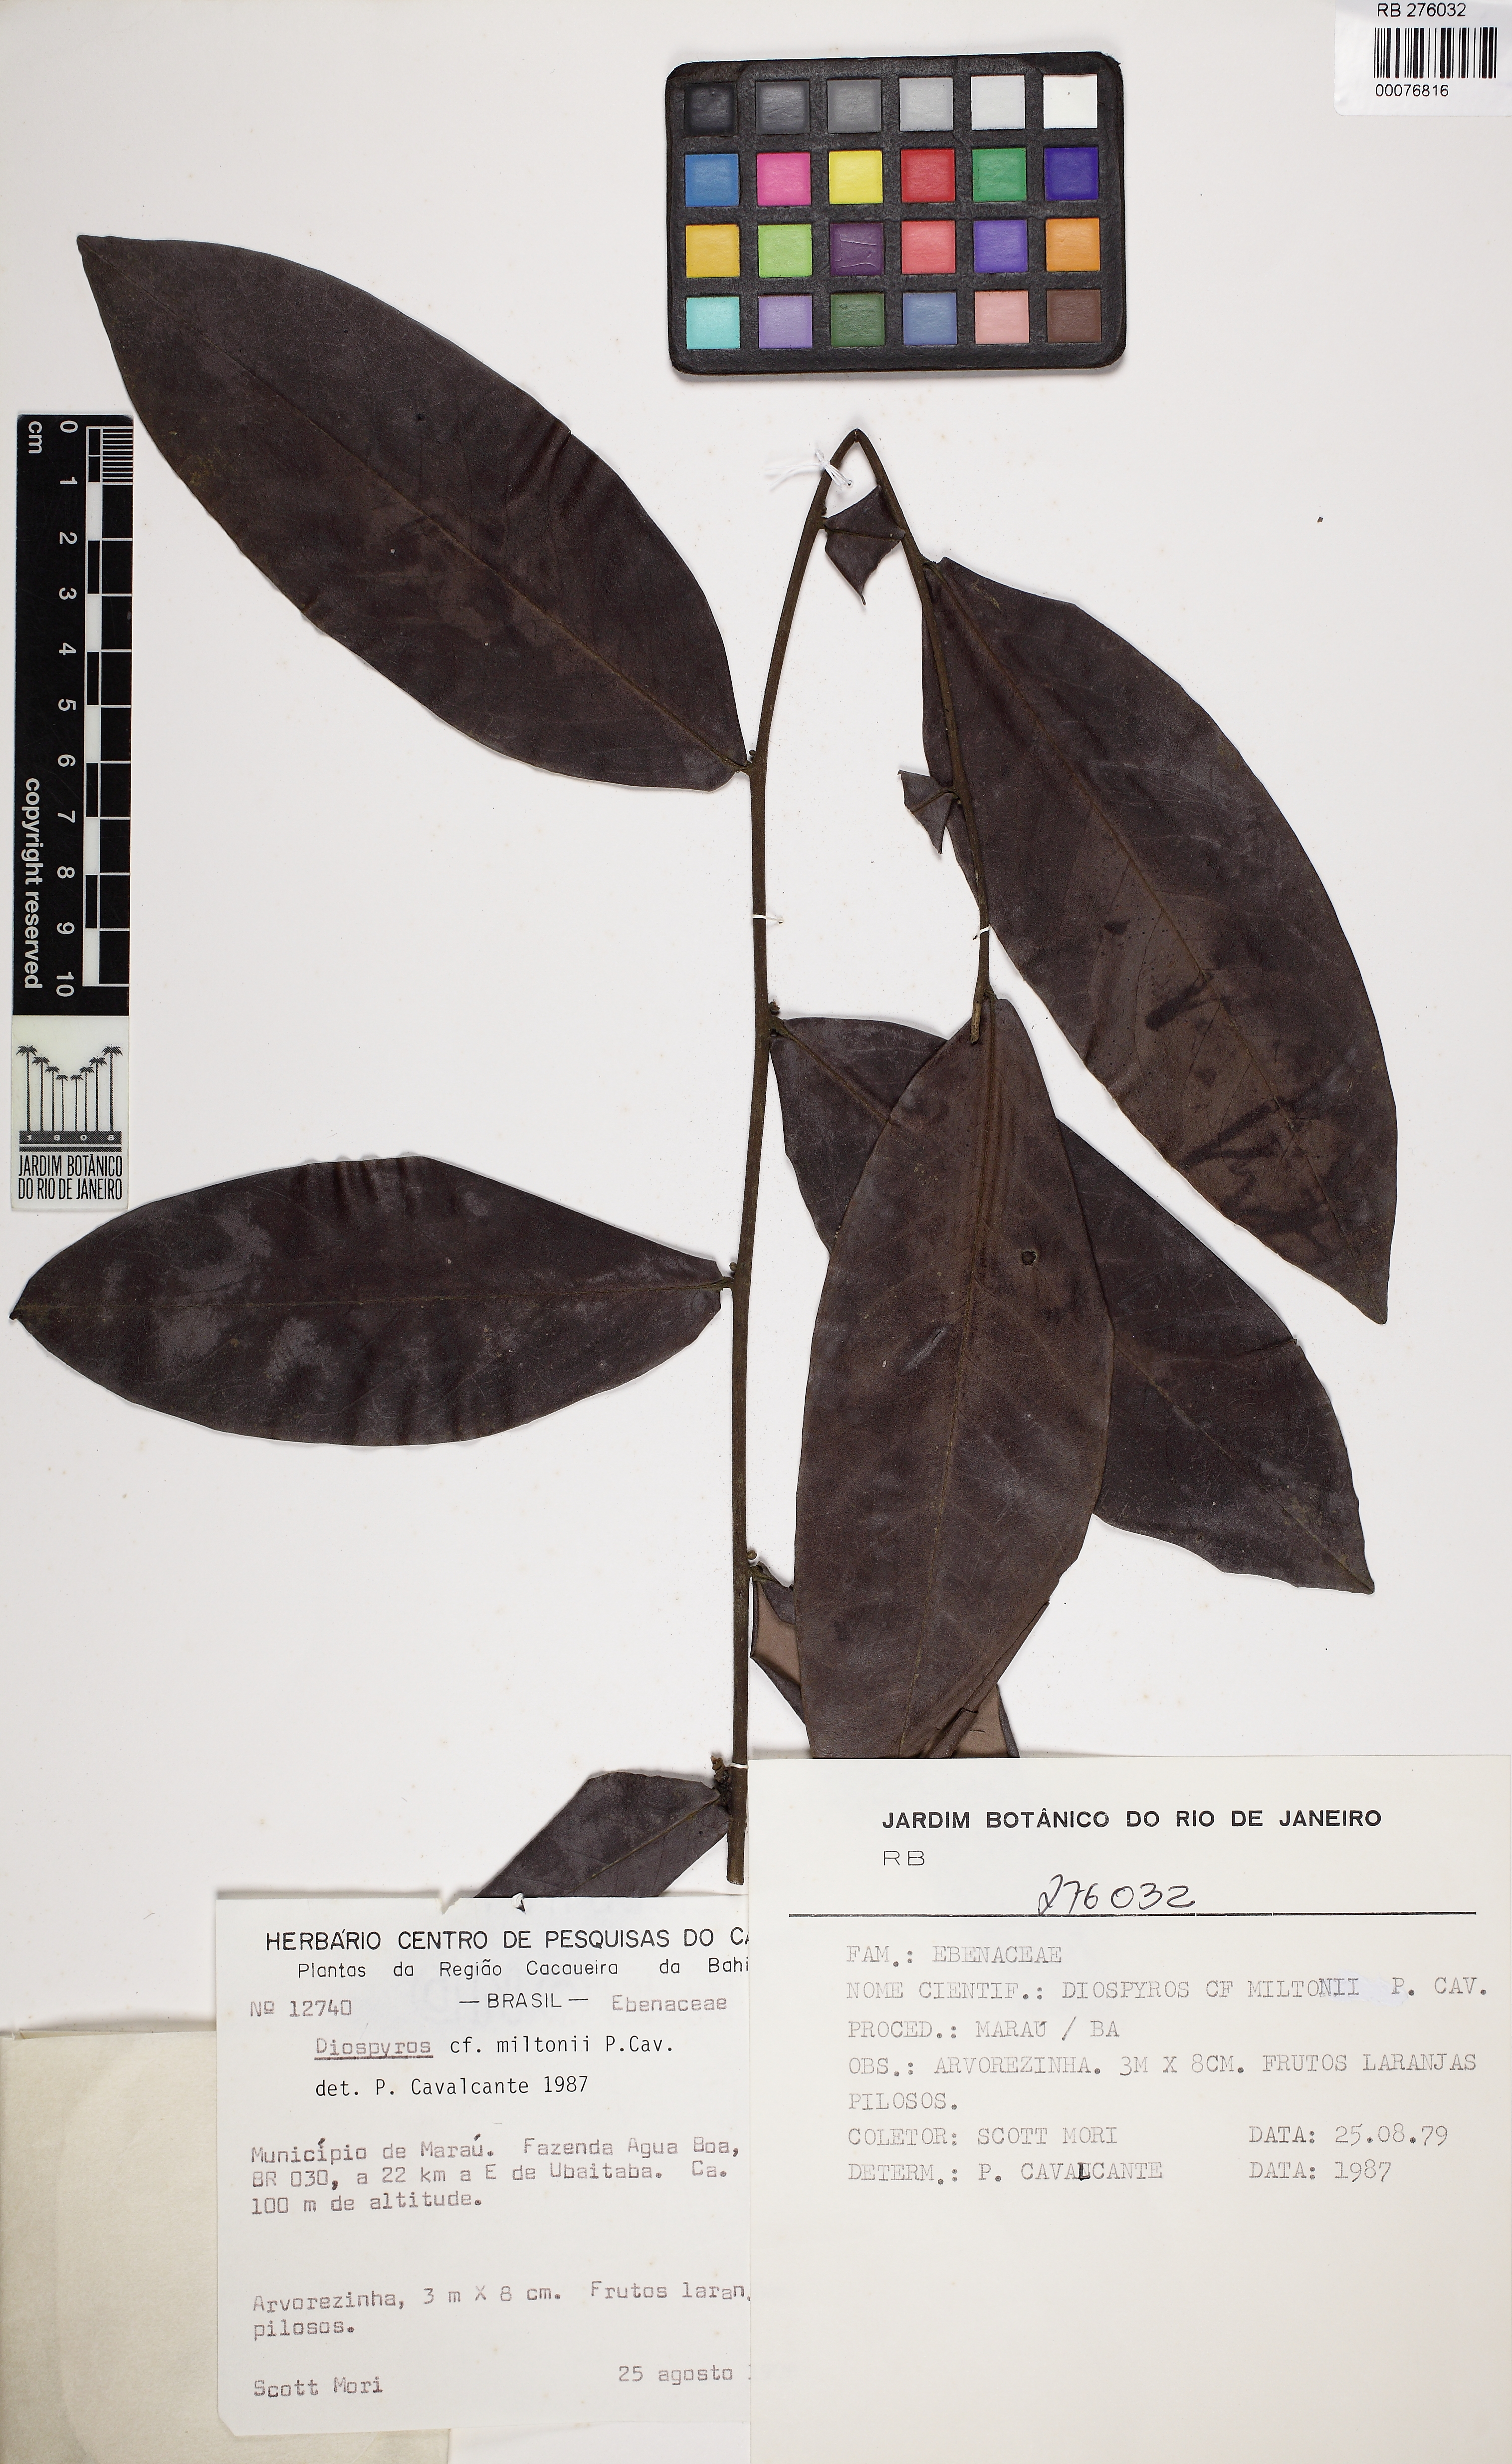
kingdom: Plantae
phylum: Tracheophyta
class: Magnoliopsida
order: Ericales
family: Ebenaceae
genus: Diospyros
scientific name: Diospyros miltonii
